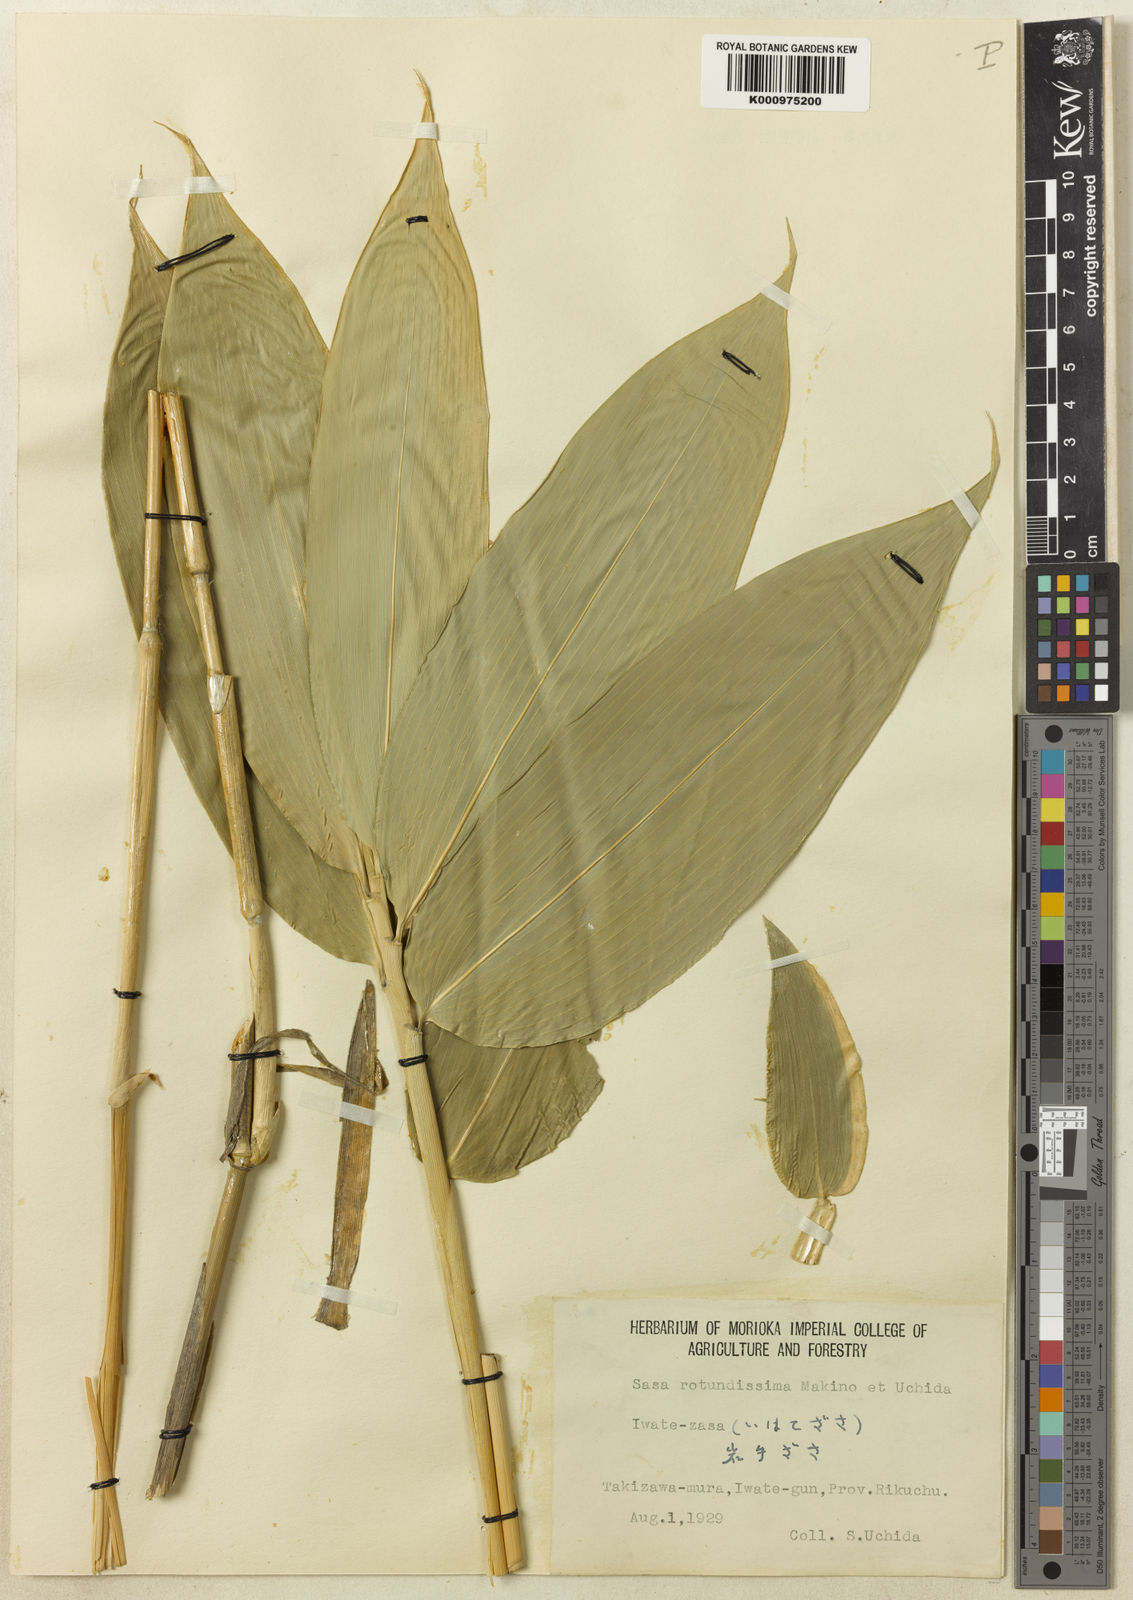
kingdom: Plantae
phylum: Tracheophyta
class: Liliopsida
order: Poales
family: Poaceae
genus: Sasa
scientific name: Sasa yahikoensis
